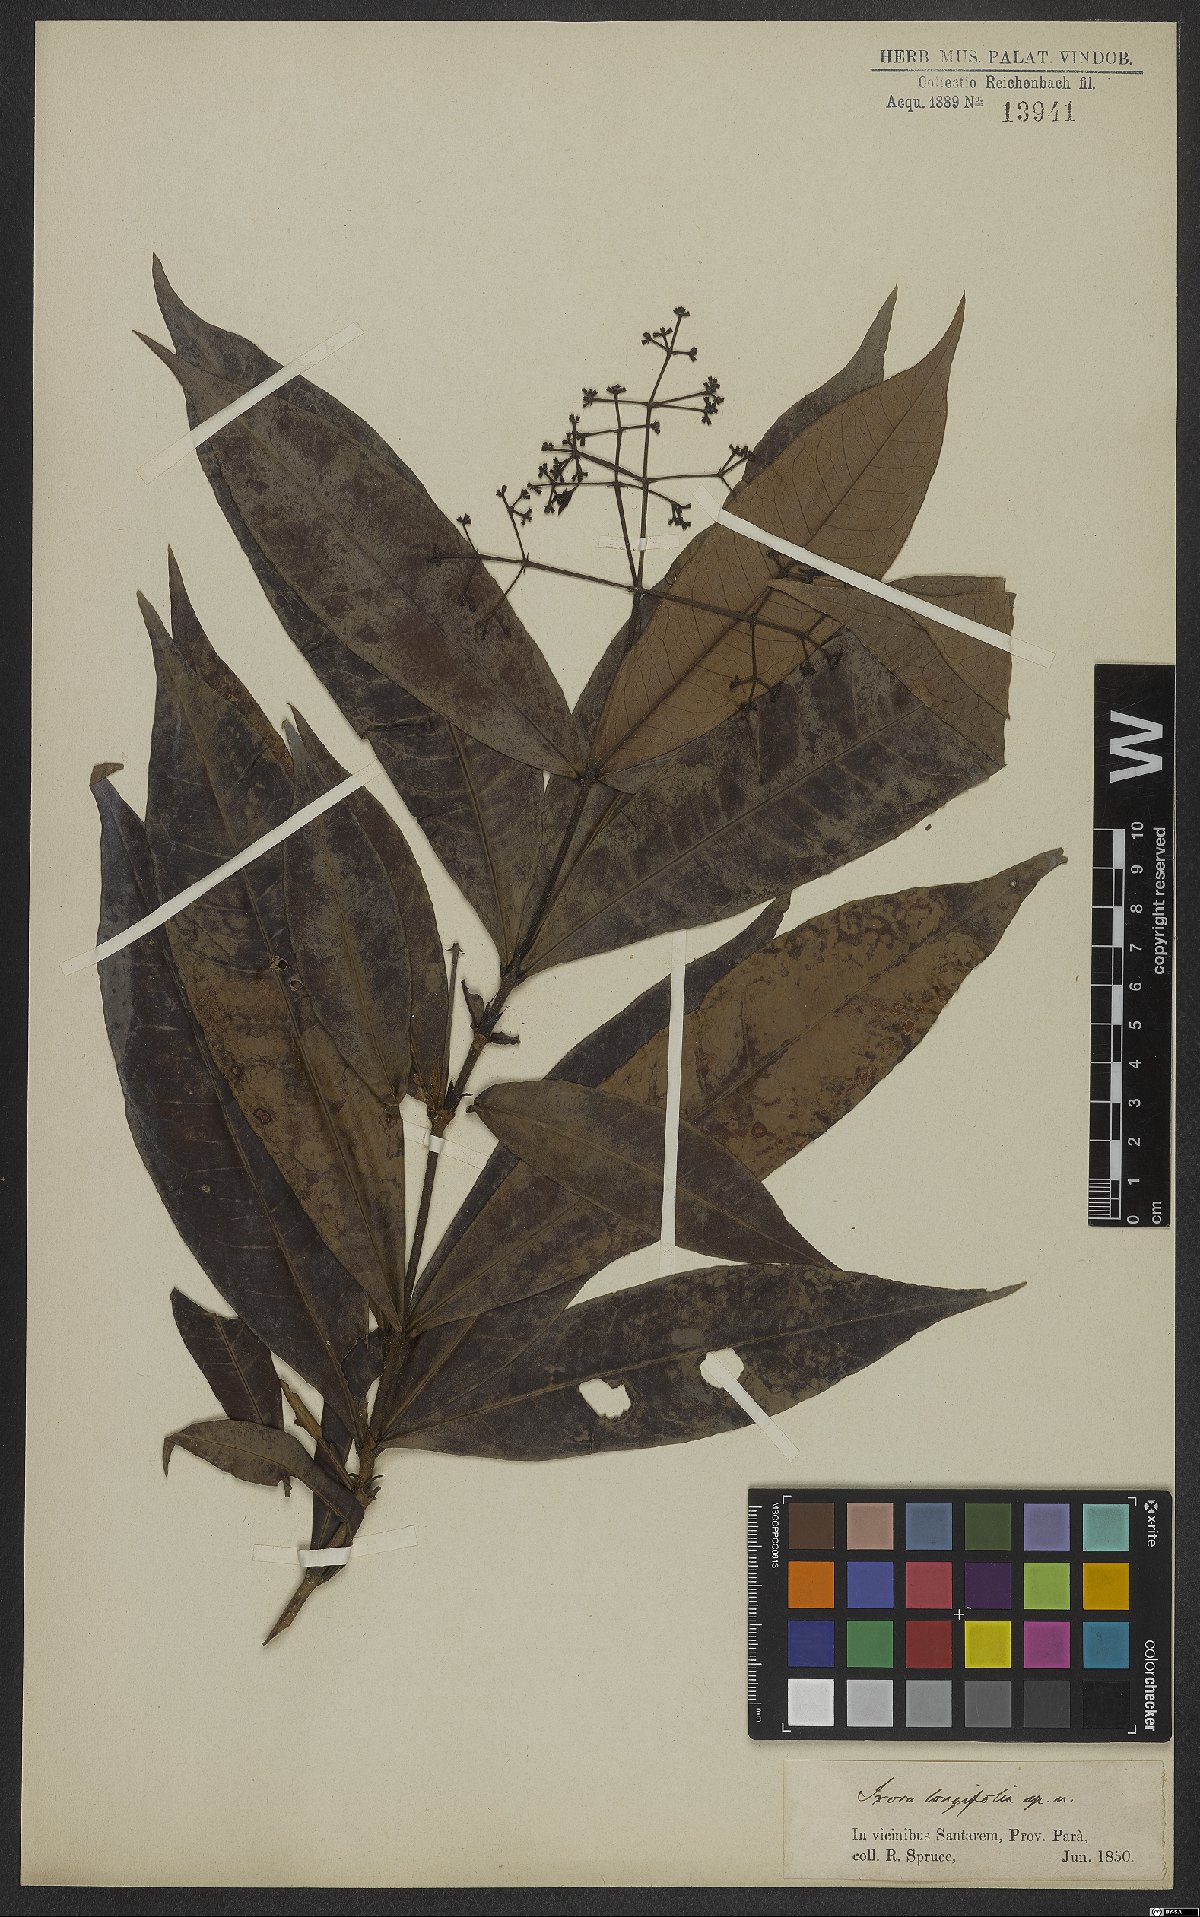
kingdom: Plantae
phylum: Tracheophyta
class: Magnoliopsida
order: Gentianales
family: Rubiaceae
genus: Ixora
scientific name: Ixora longifolia
